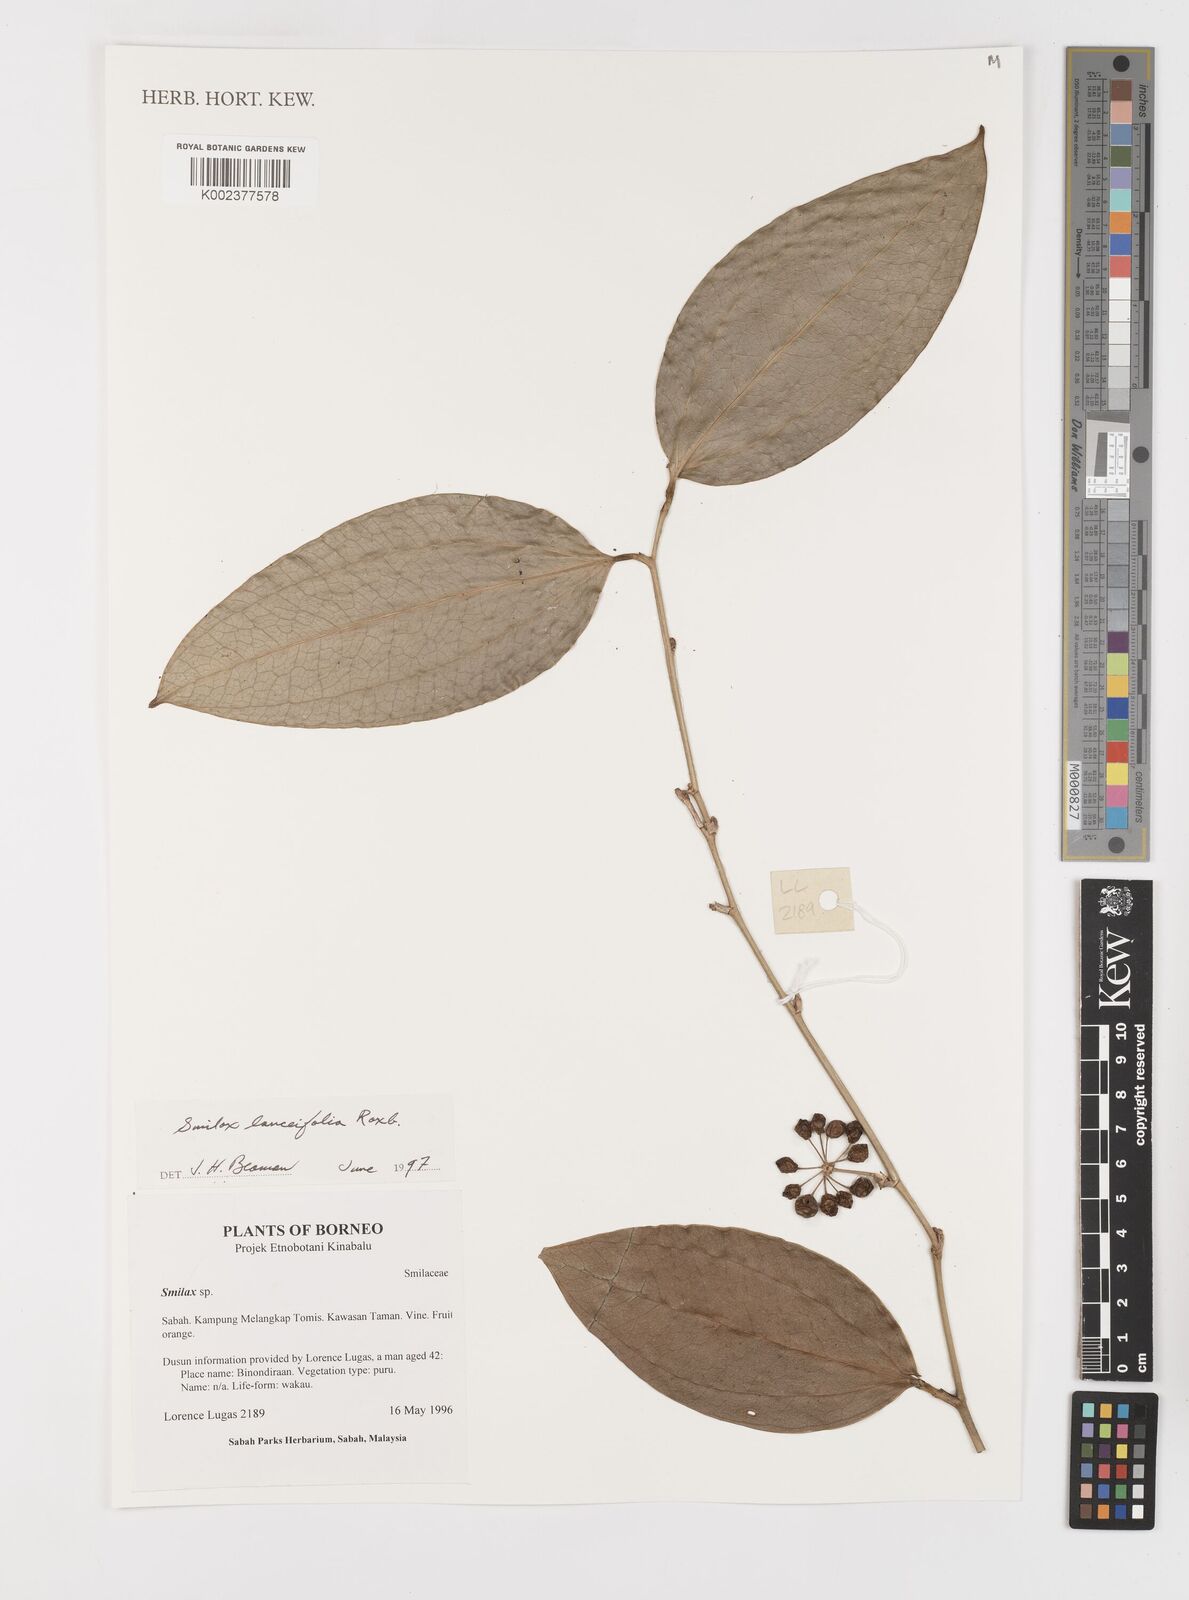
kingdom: Plantae
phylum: Tracheophyta
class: Liliopsida
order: Liliales
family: Smilacaceae
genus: Smilax
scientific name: Smilax lanceifolia
